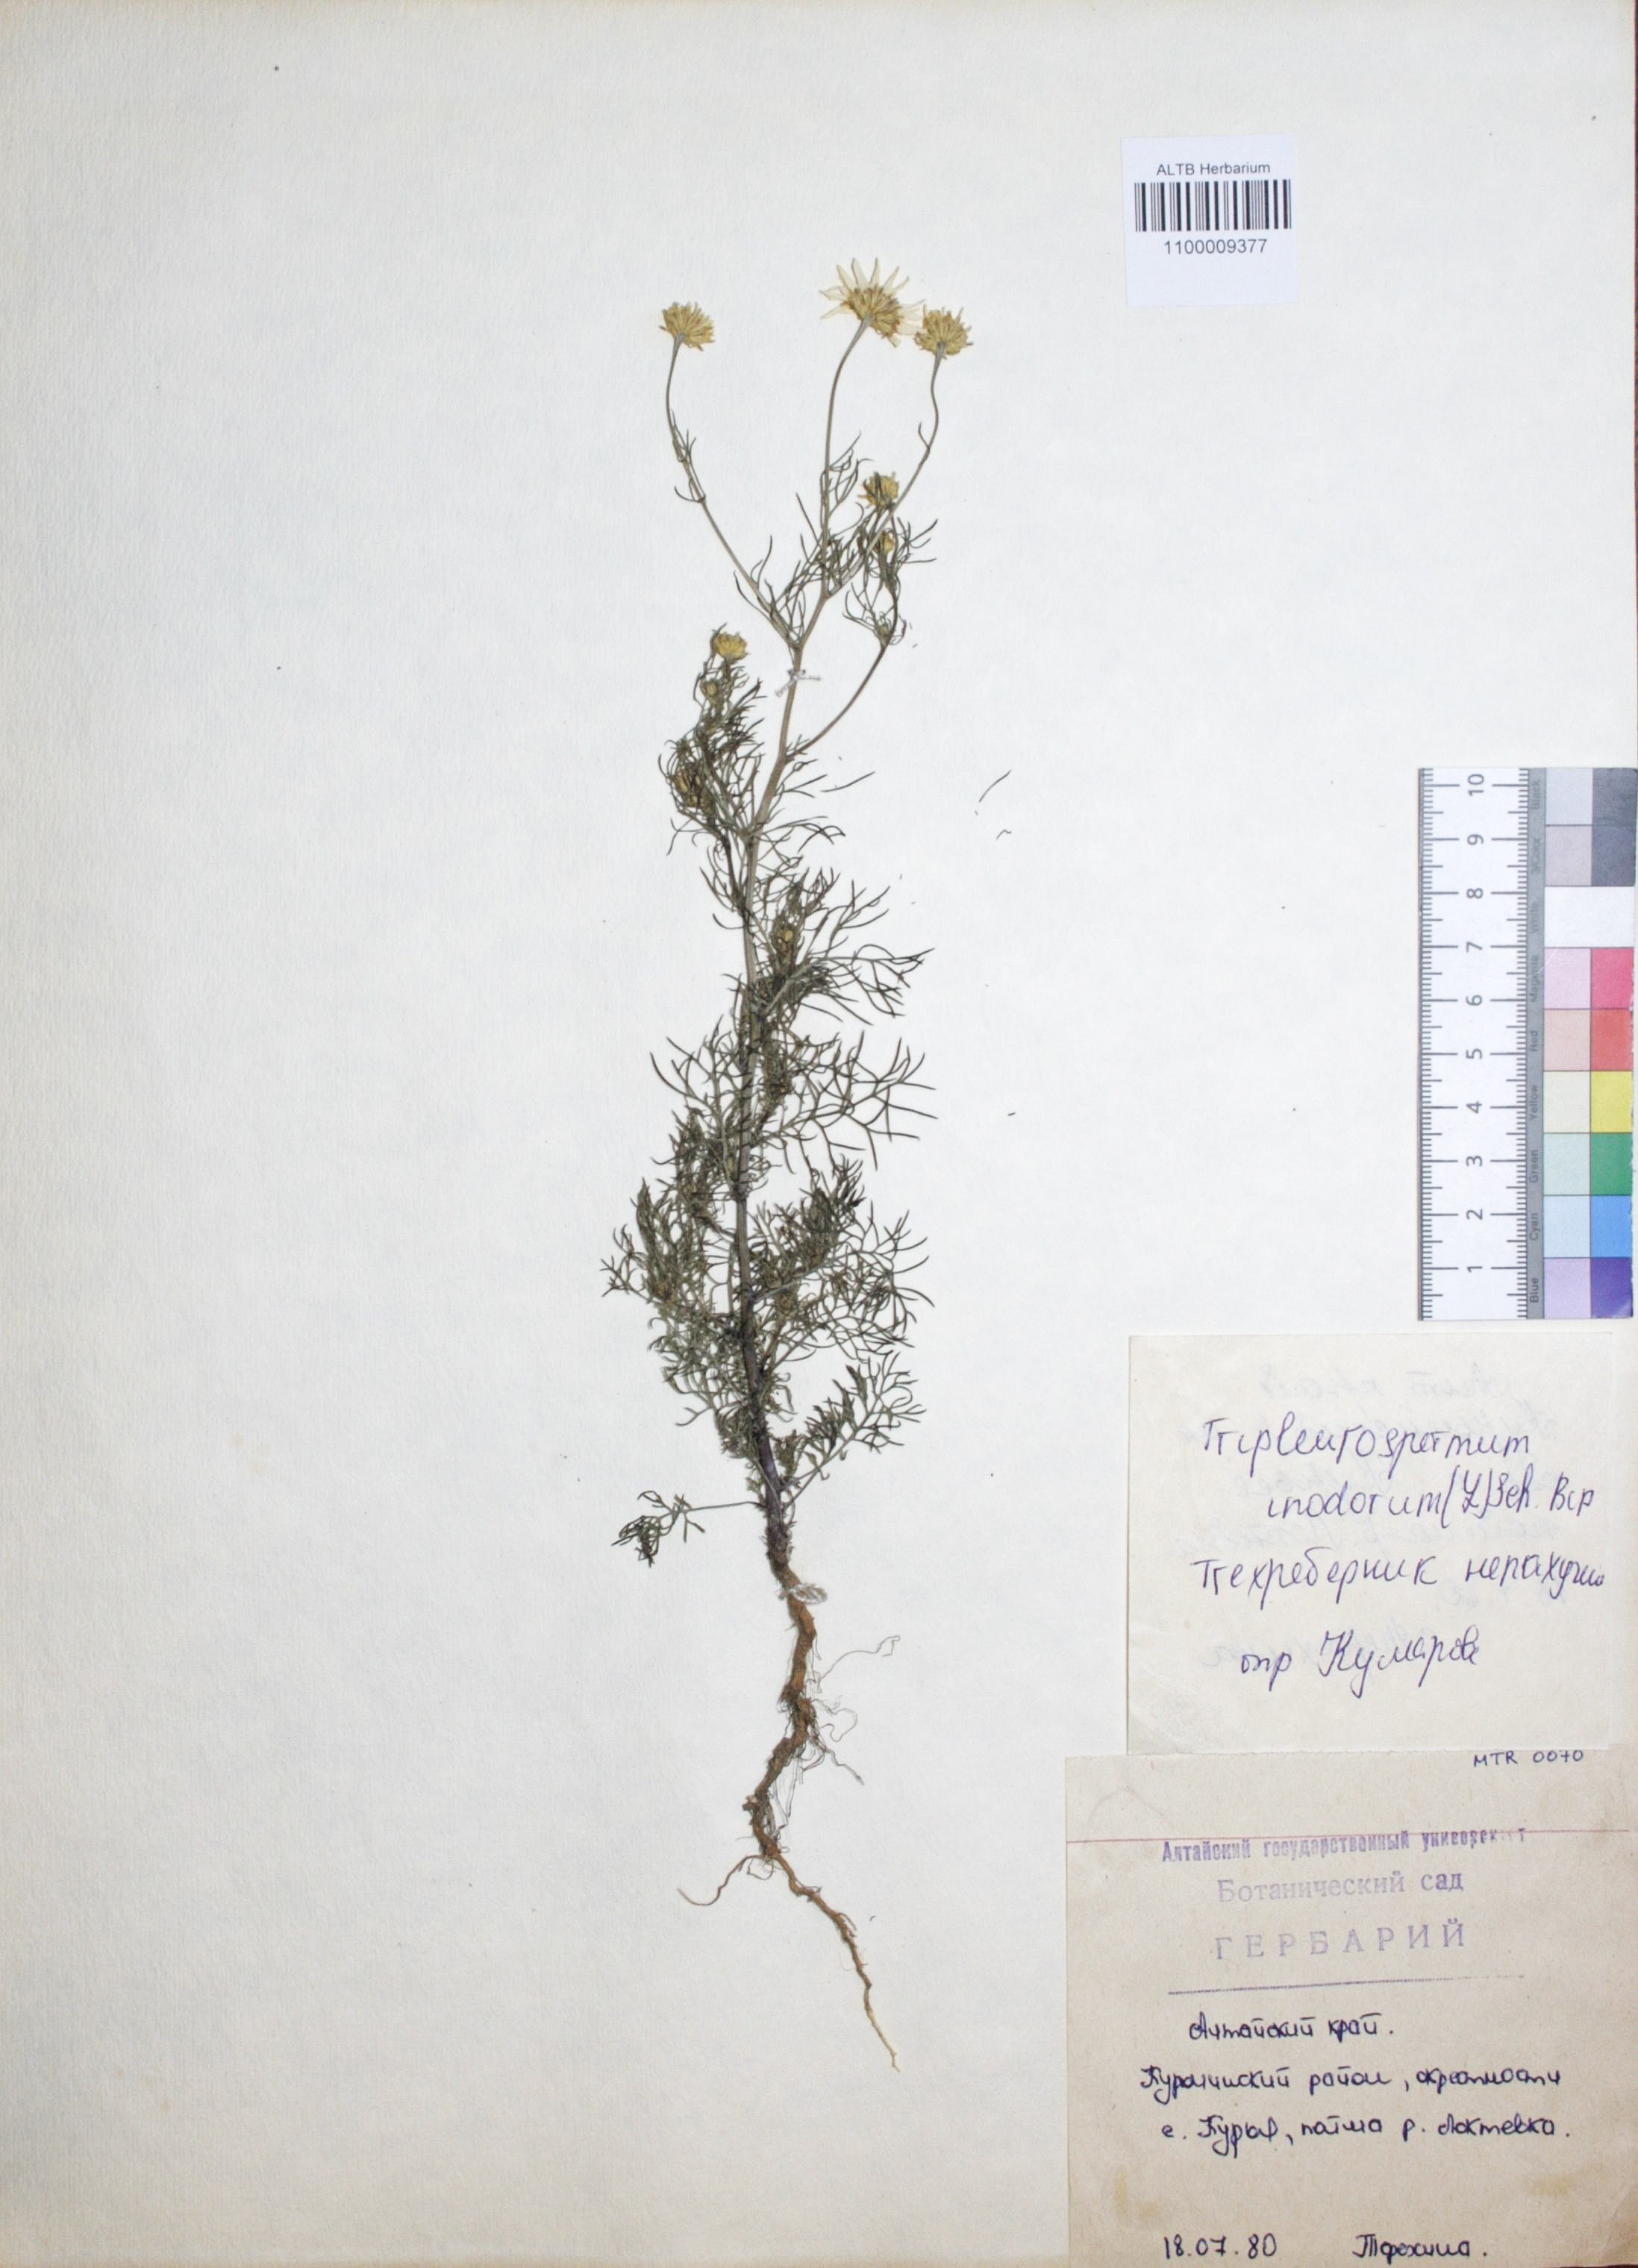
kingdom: Plantae
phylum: Tracheophyta
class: Magnoliopsida
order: Asterales
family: Asteraceae
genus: Tripleurospermum
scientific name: Tripleurospermum inodorum
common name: Scentless mayweed
